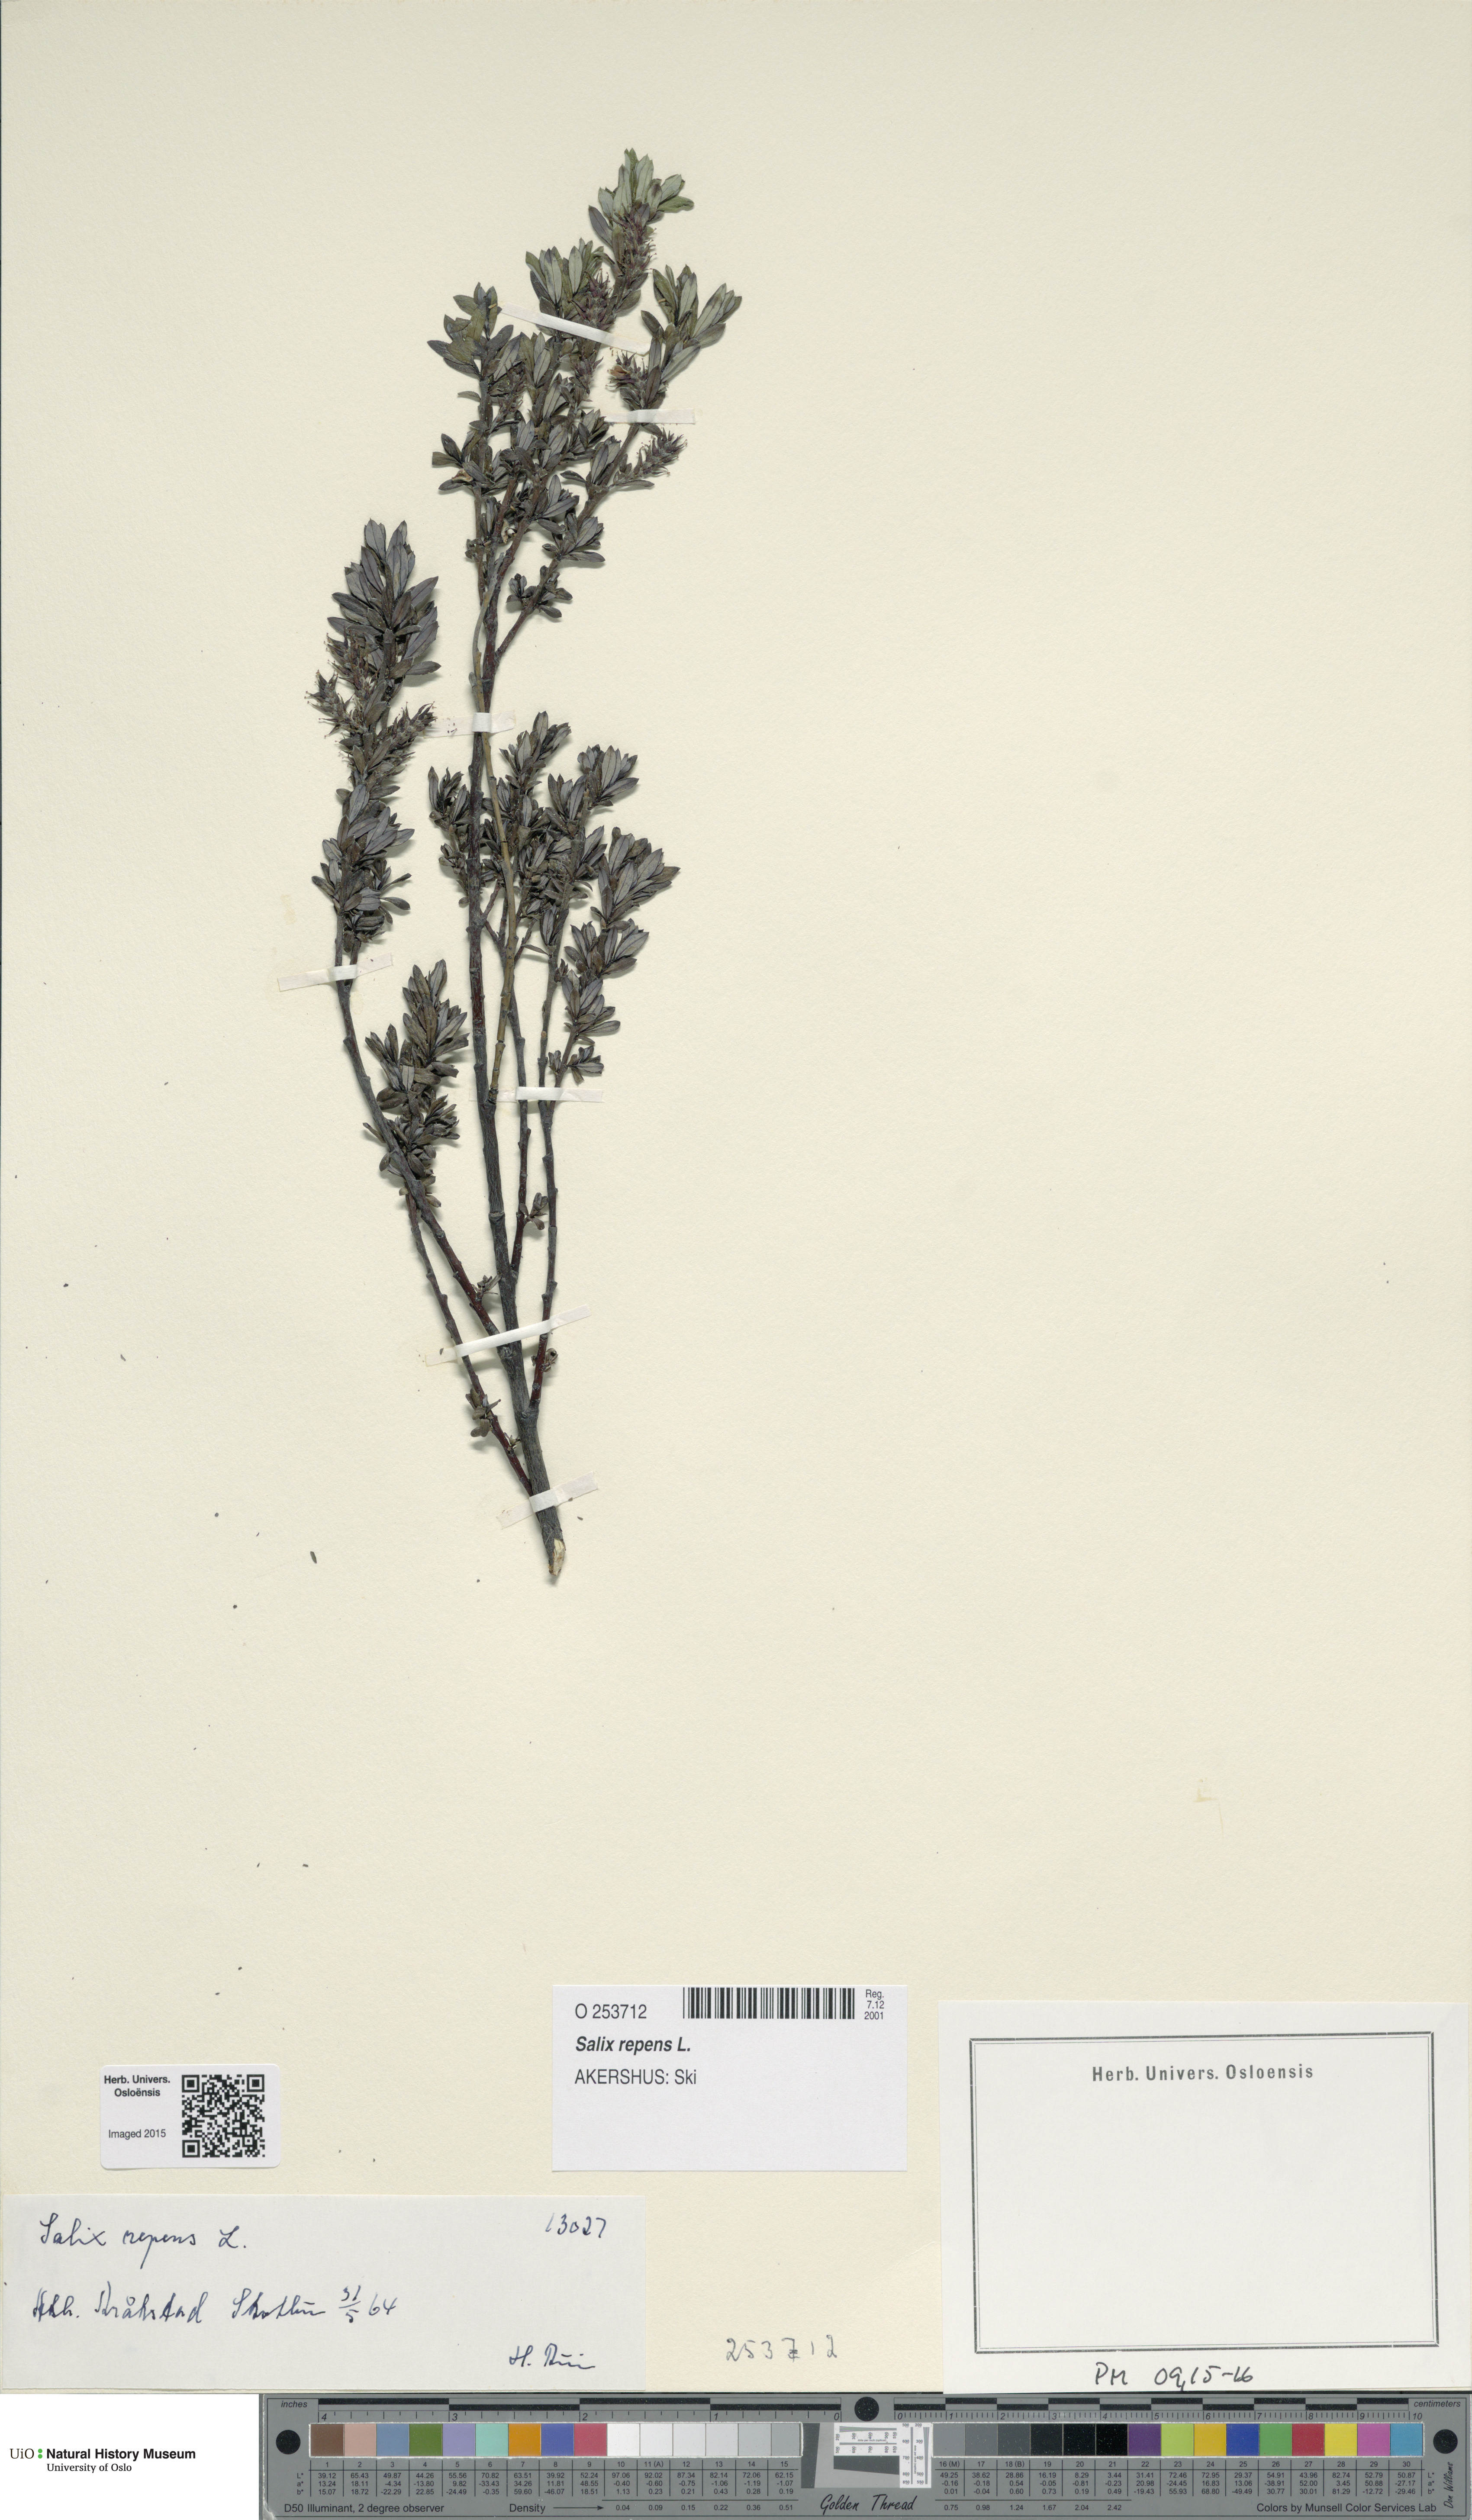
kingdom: Plantae
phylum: Tracheophyta
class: Magnoliopsida
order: Malpighiales
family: Salicaceae
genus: Salix
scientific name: Salix repens
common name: Creeping willow
